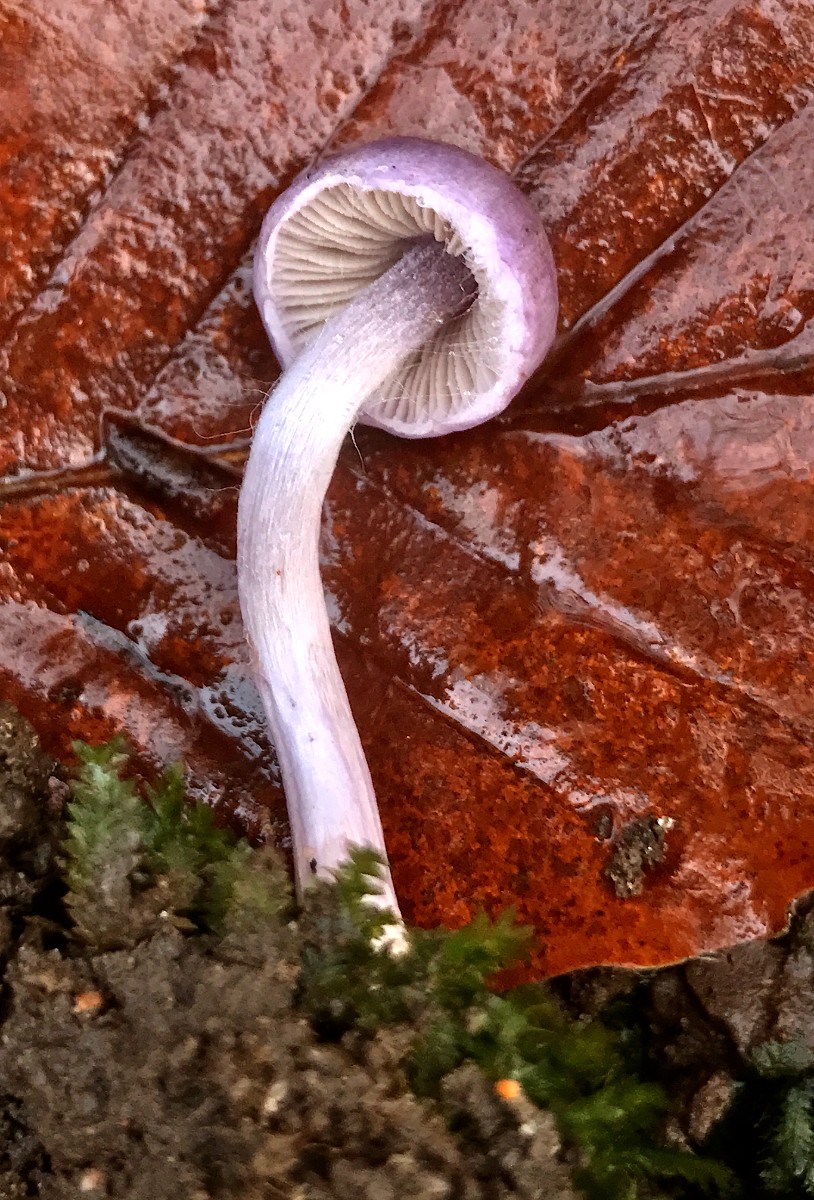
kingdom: Fungi
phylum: Basidiomycota
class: Agaricomycetes
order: Agaricales
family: Inocybaceae
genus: Inocybe
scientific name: Inocybe geophylla
